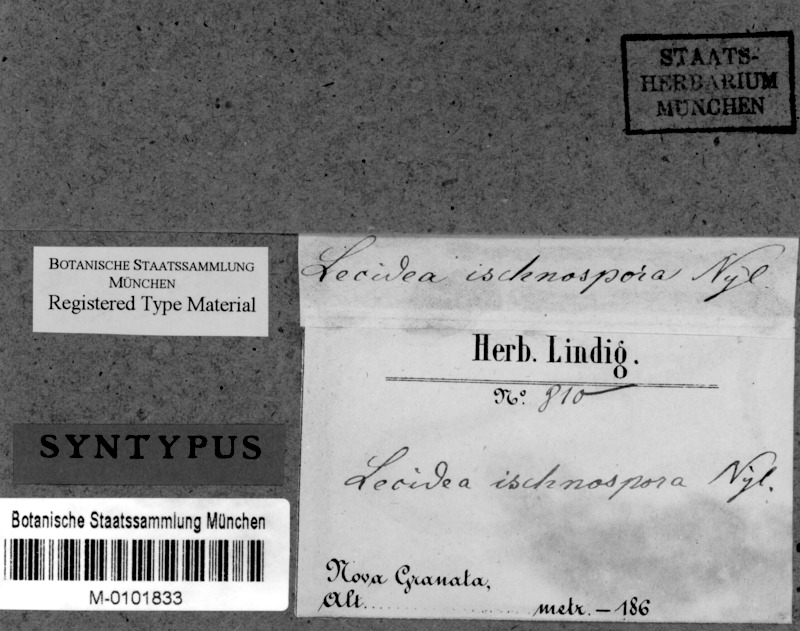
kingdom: Fungi
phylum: Ascomycota
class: Lecanoromycetes
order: Lecanorales
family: Ramalinaceae
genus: Bacidia
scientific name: Bacidia ischnospora
